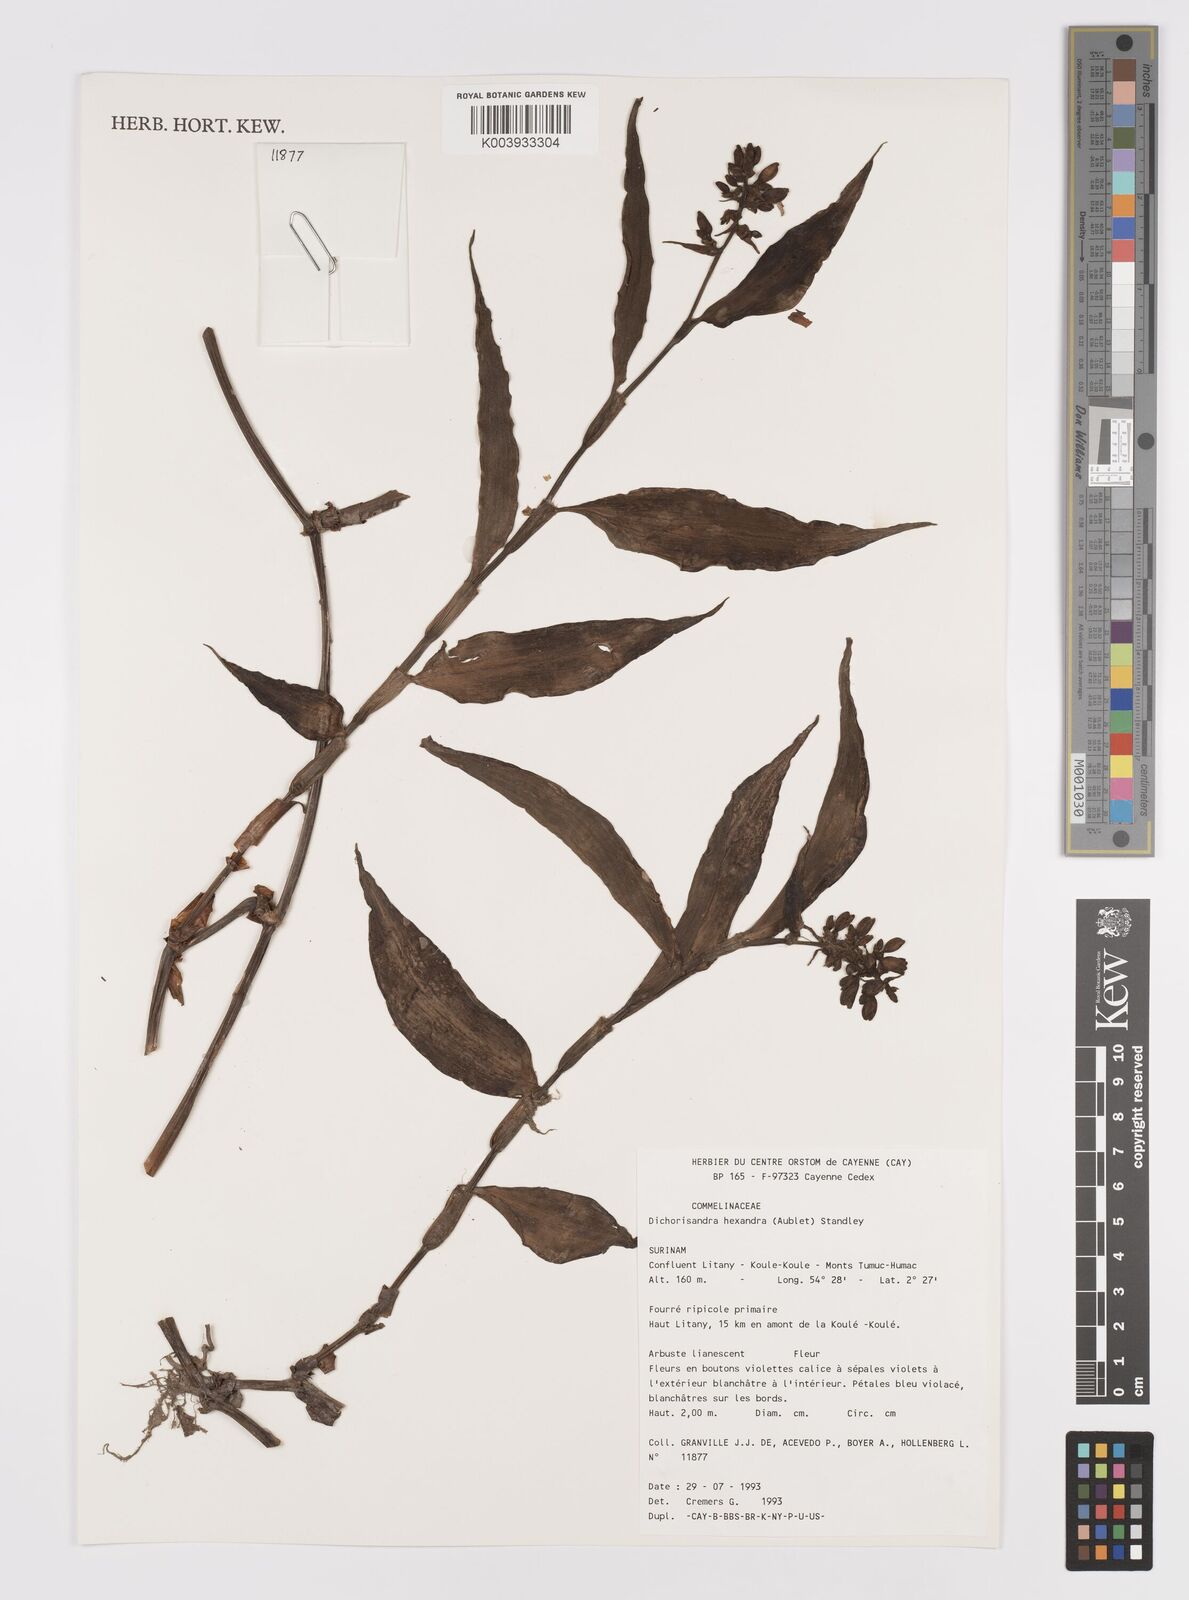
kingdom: Plantae
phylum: Tracheophyta
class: Liliopsida
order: Commelinales
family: Commelinaceae
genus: Dichorisandra
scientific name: Dichorisandra hexandra
